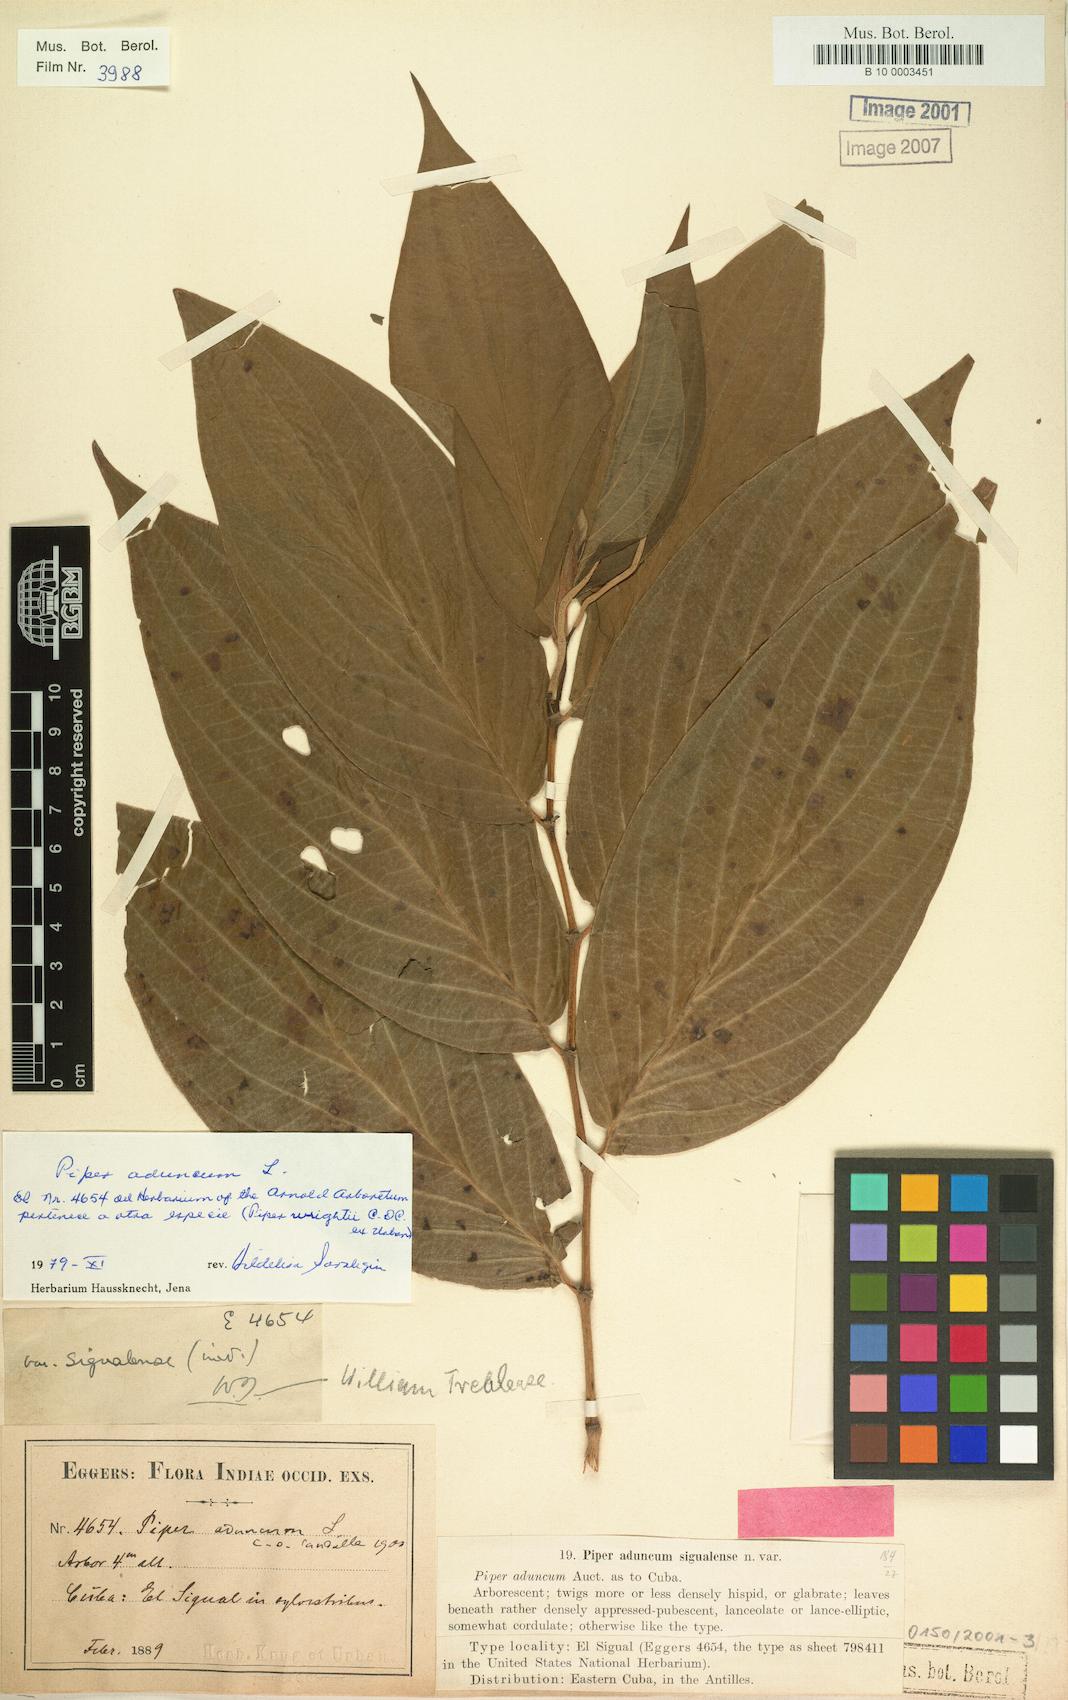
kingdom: Plantae
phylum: Tracheophyta
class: Magnoliopsida
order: Piperales
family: Piperaceae
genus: Piper
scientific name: Piper aduncum
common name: Spiked pepper
